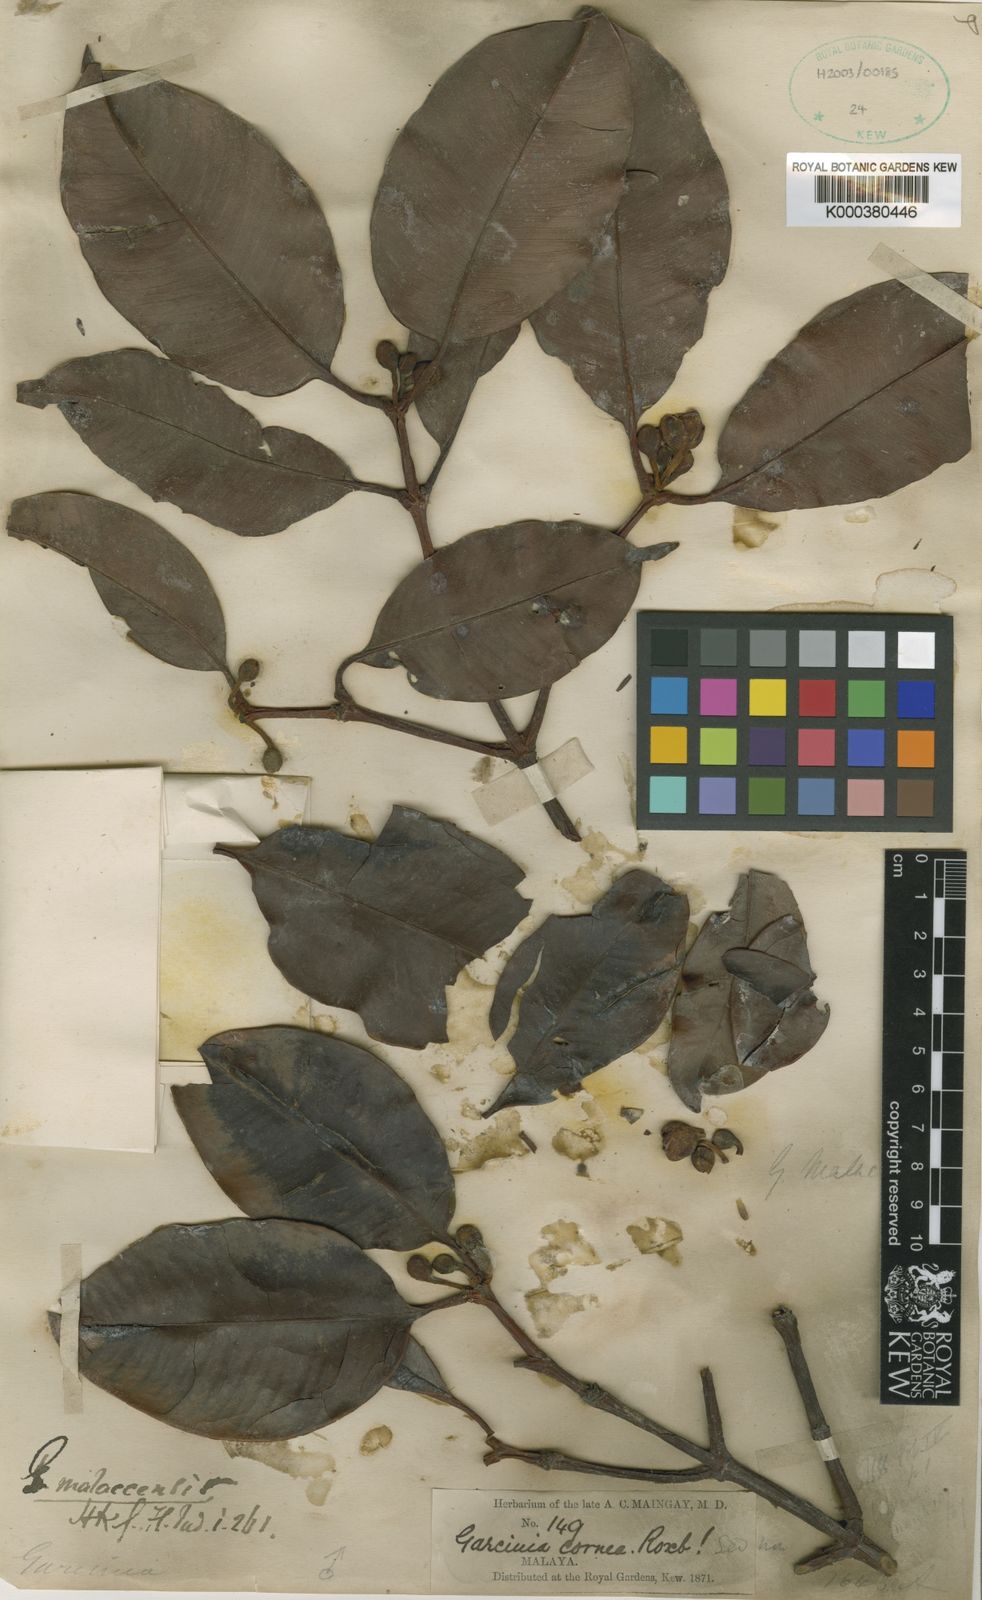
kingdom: Plantae
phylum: Tracheophyta
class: Magnoliopsida
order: Malpighiales
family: Clusiaceae
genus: Garcinia
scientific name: Garcinia mangostana
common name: Mangosteen
